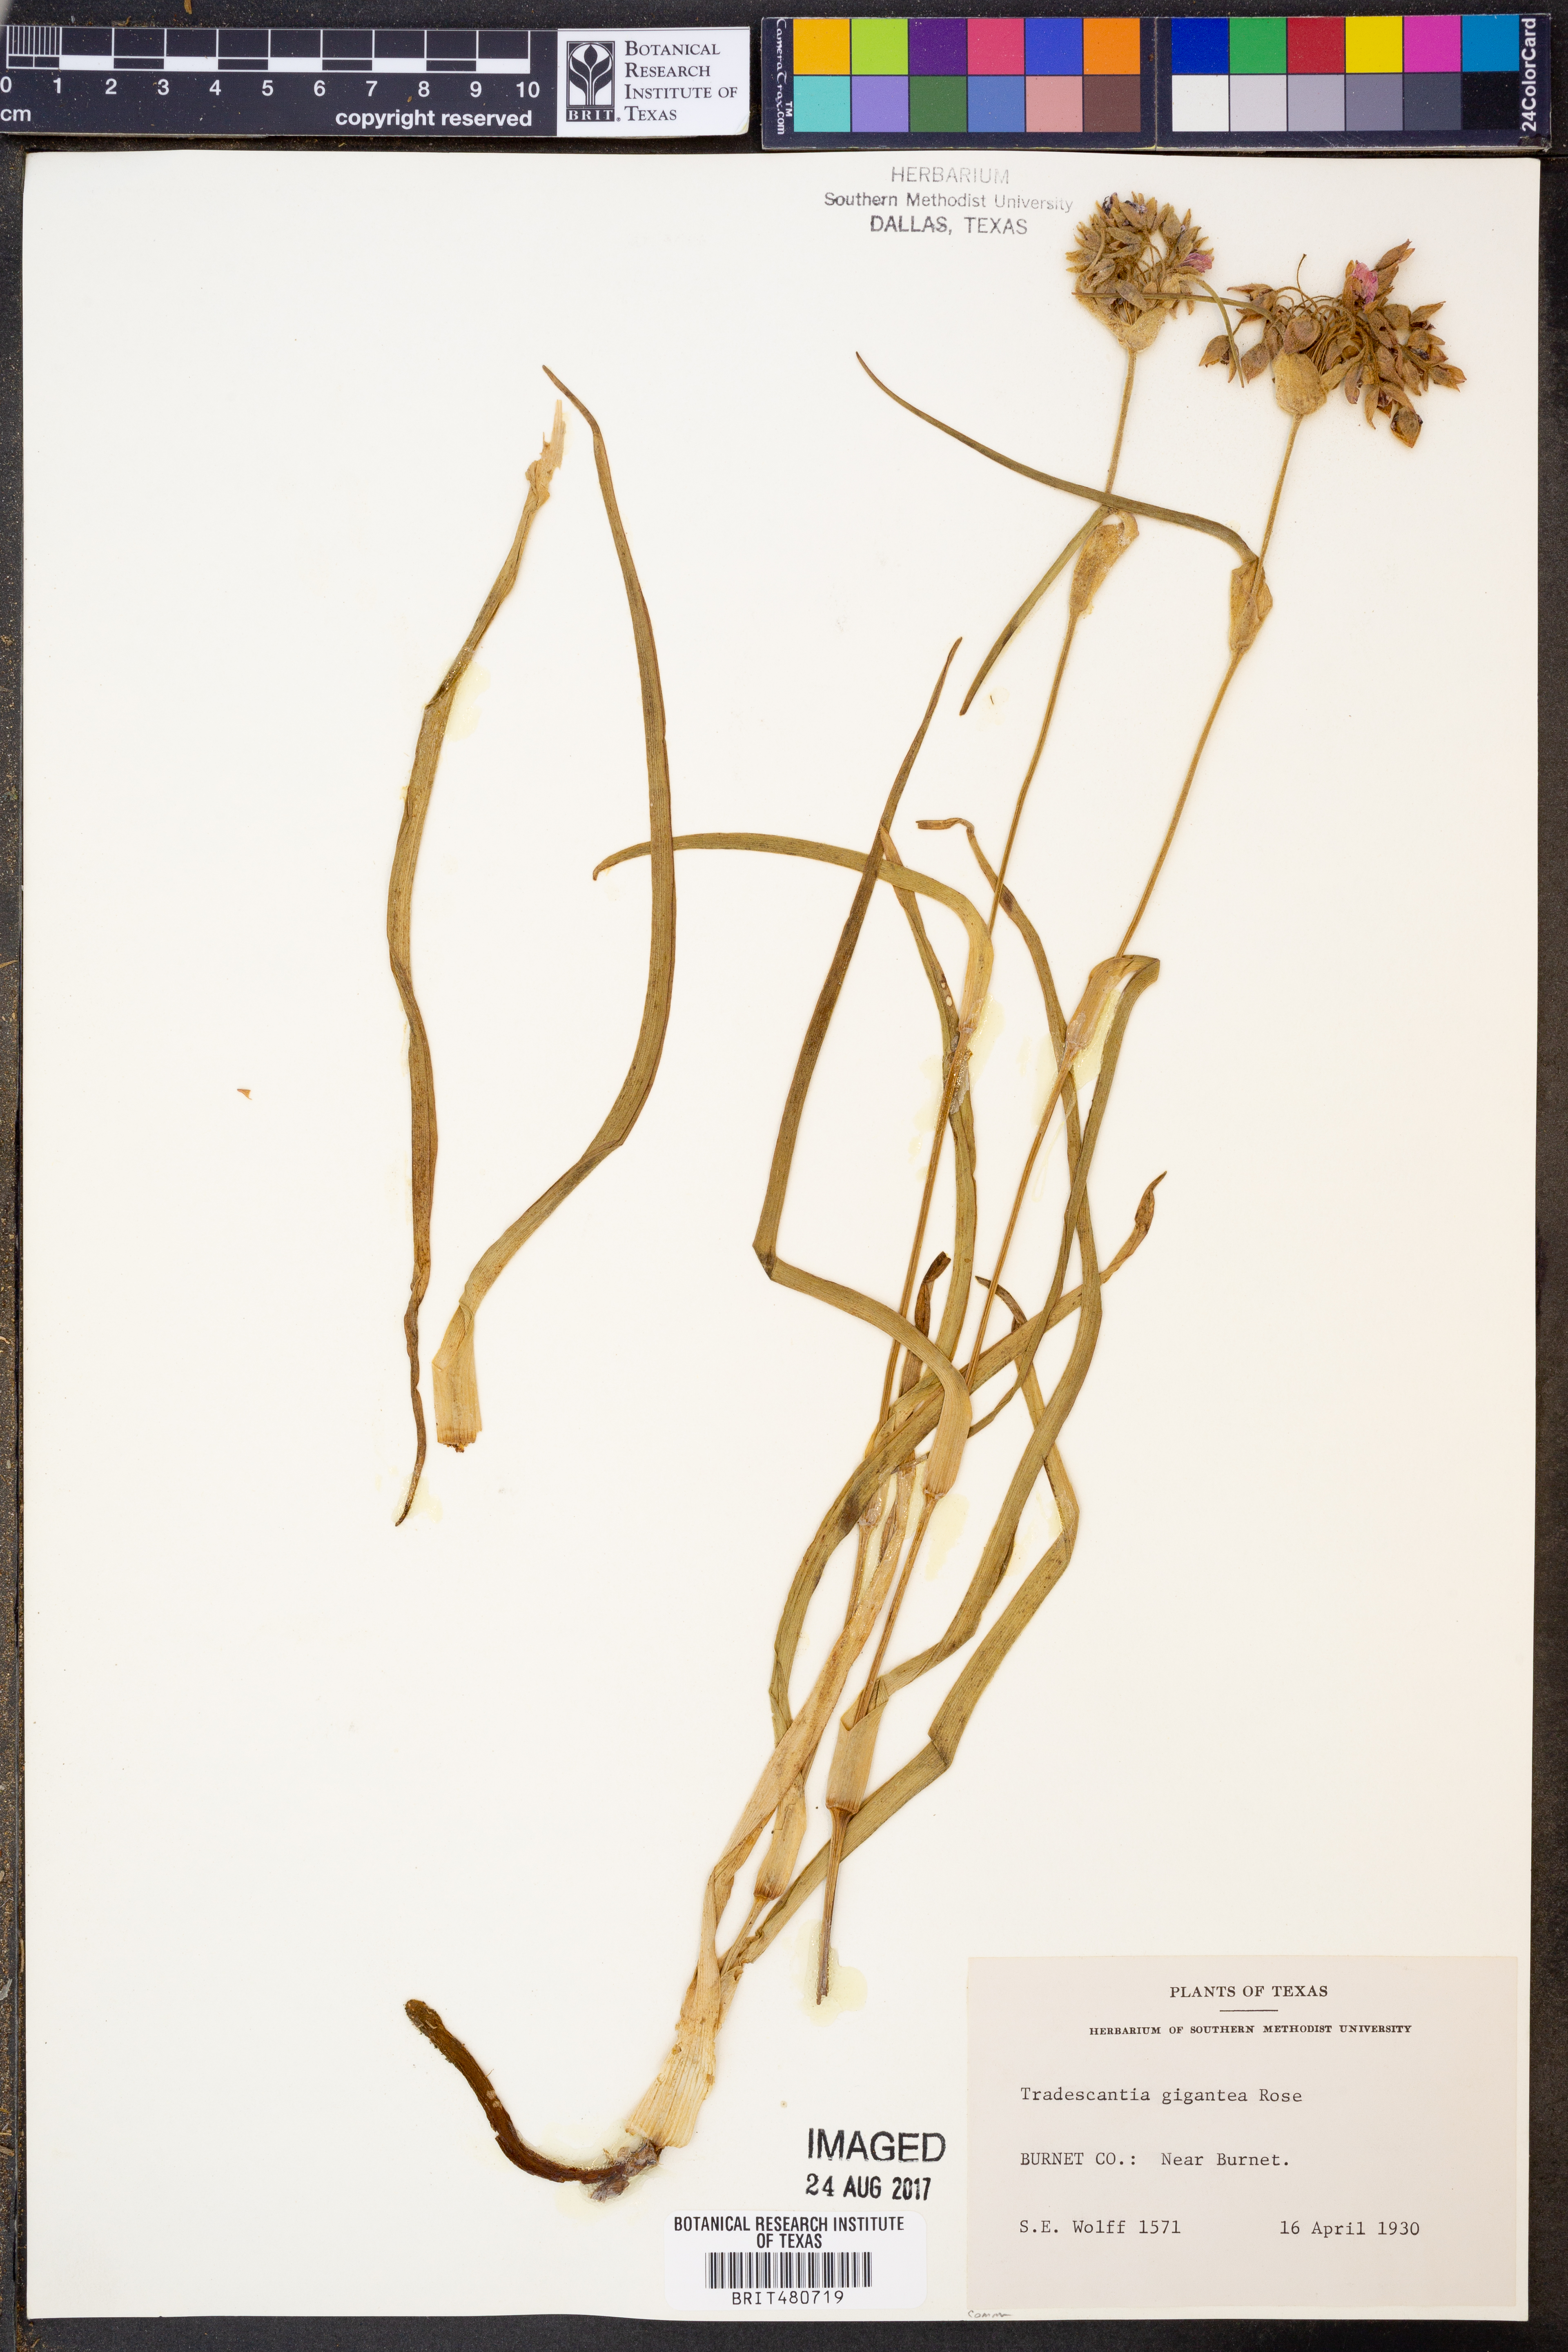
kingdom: Plantae
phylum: Tracheophyta
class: Liliopsida
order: Commelinales
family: Commelinaceae
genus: Tradescantia
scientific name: Tradescantia gigantea
